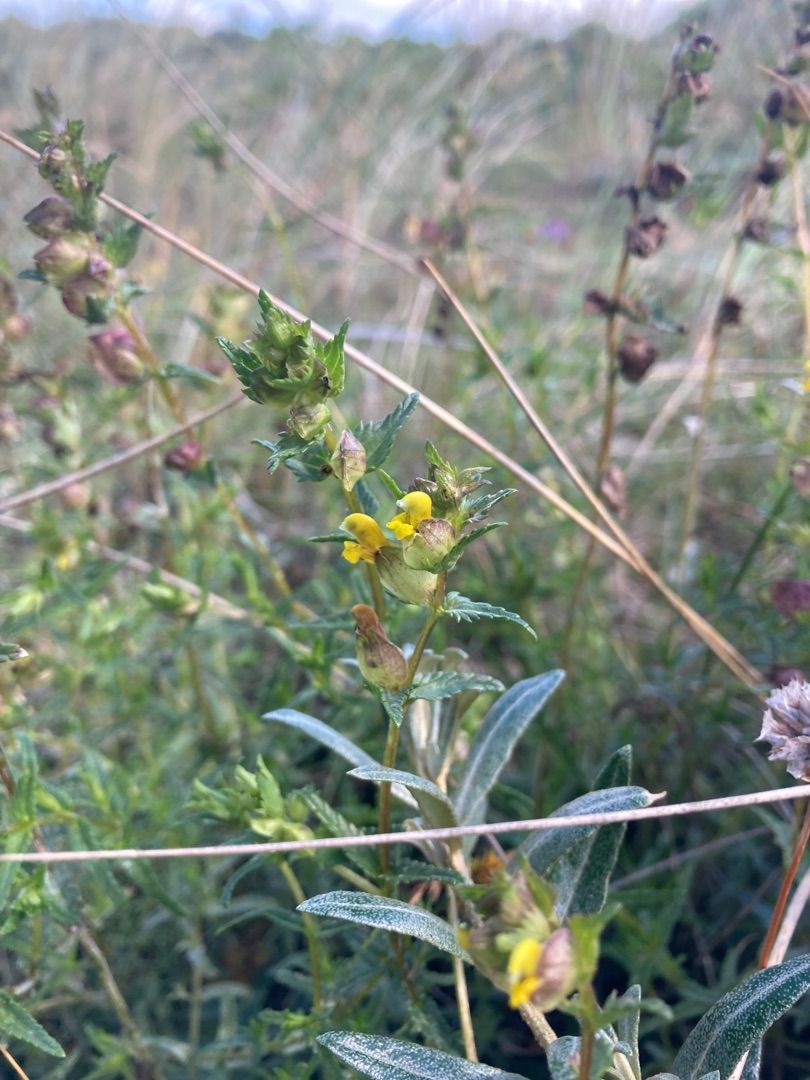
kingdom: Plantae
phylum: Tracheophyta
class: Magnoliopsida
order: Lamiales
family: Orobanchaceae
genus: Rhinanthus
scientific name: Rhinanthus minor
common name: Liden skjaller
